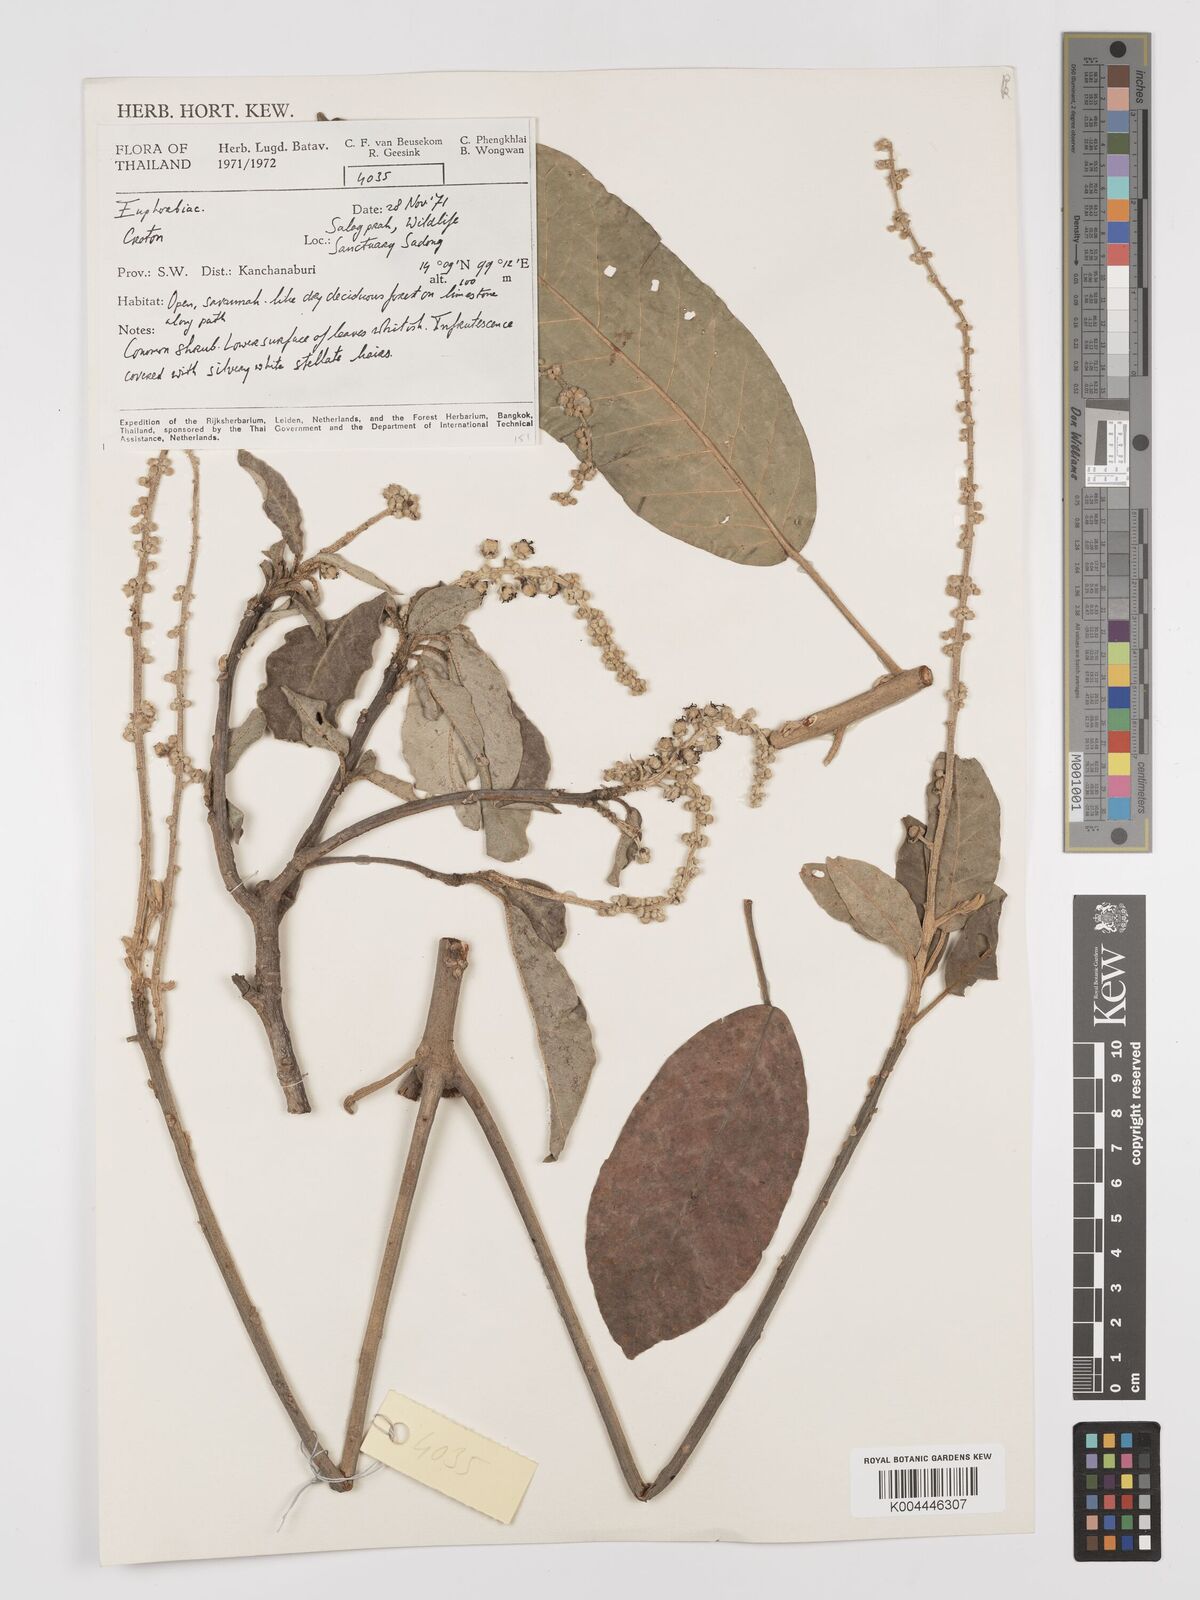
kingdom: Plantae
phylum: Tracheophyta
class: Magnoliopsida
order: Malpighiales
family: Euphorbiaceae
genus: Croton
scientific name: Croton
